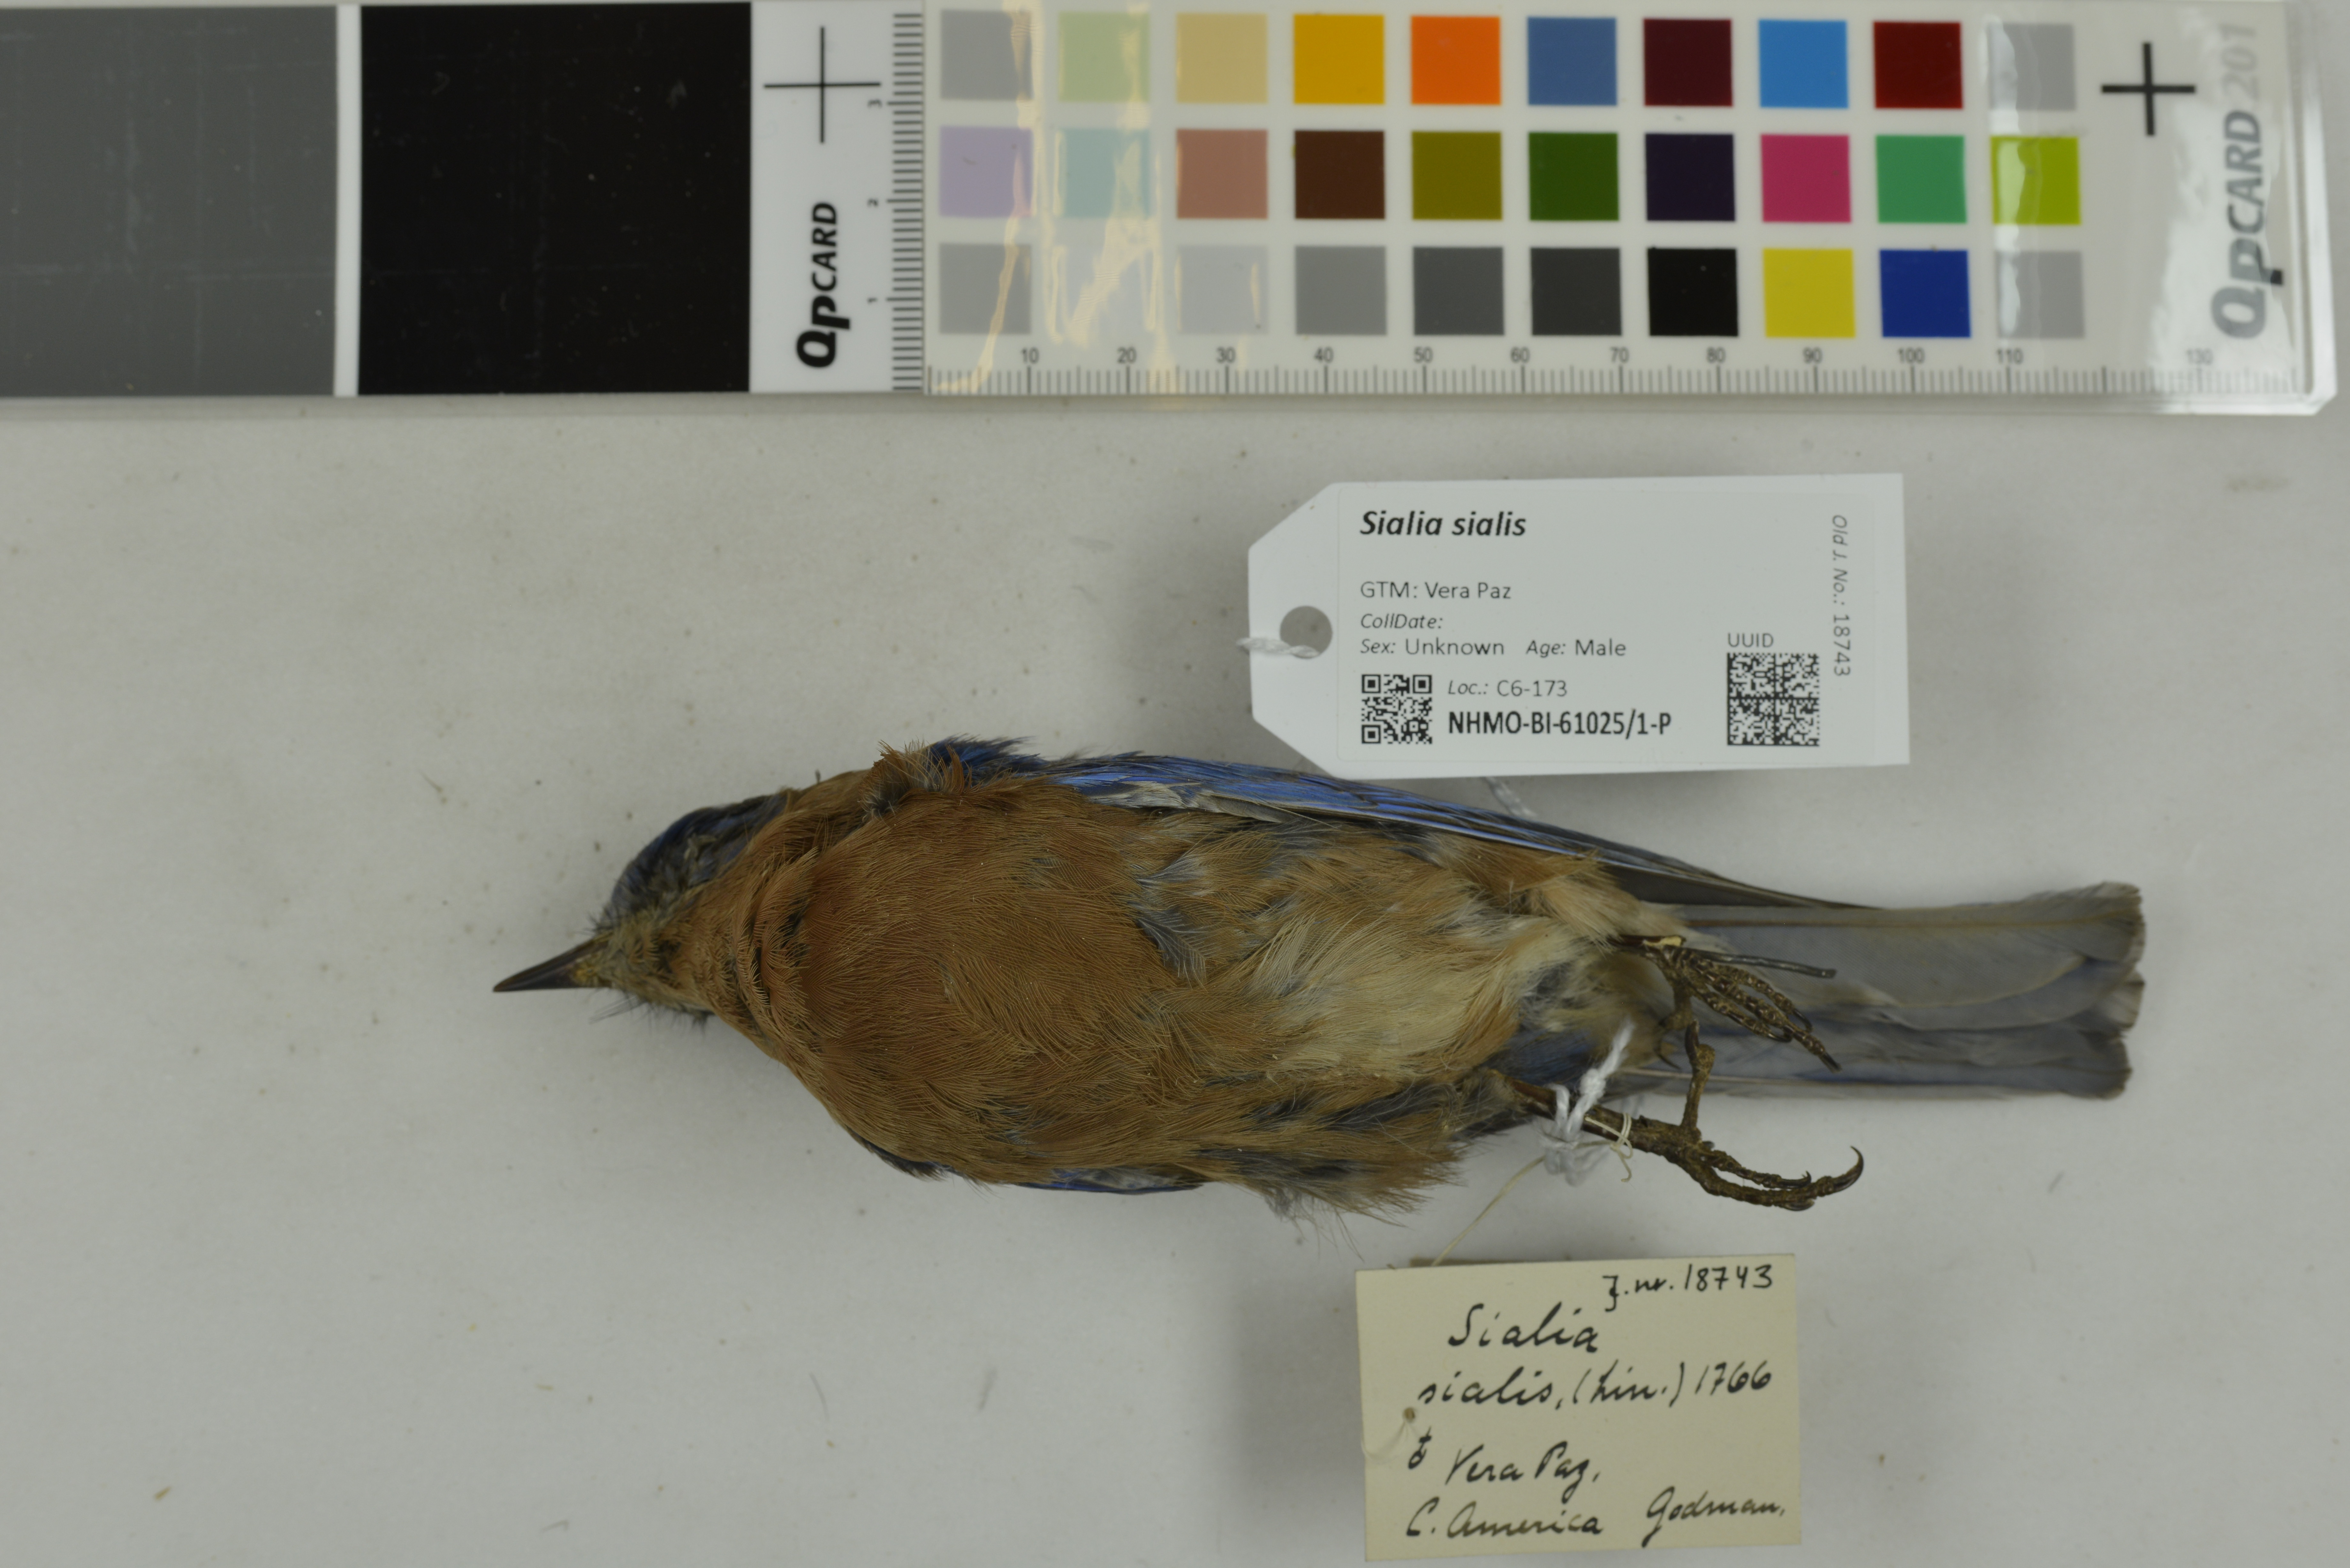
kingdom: Animalia
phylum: Chordata
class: Aves
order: Passeriformes
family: Turdidae
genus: Sialia
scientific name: Sialia sialis
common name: Eastern bluebird
